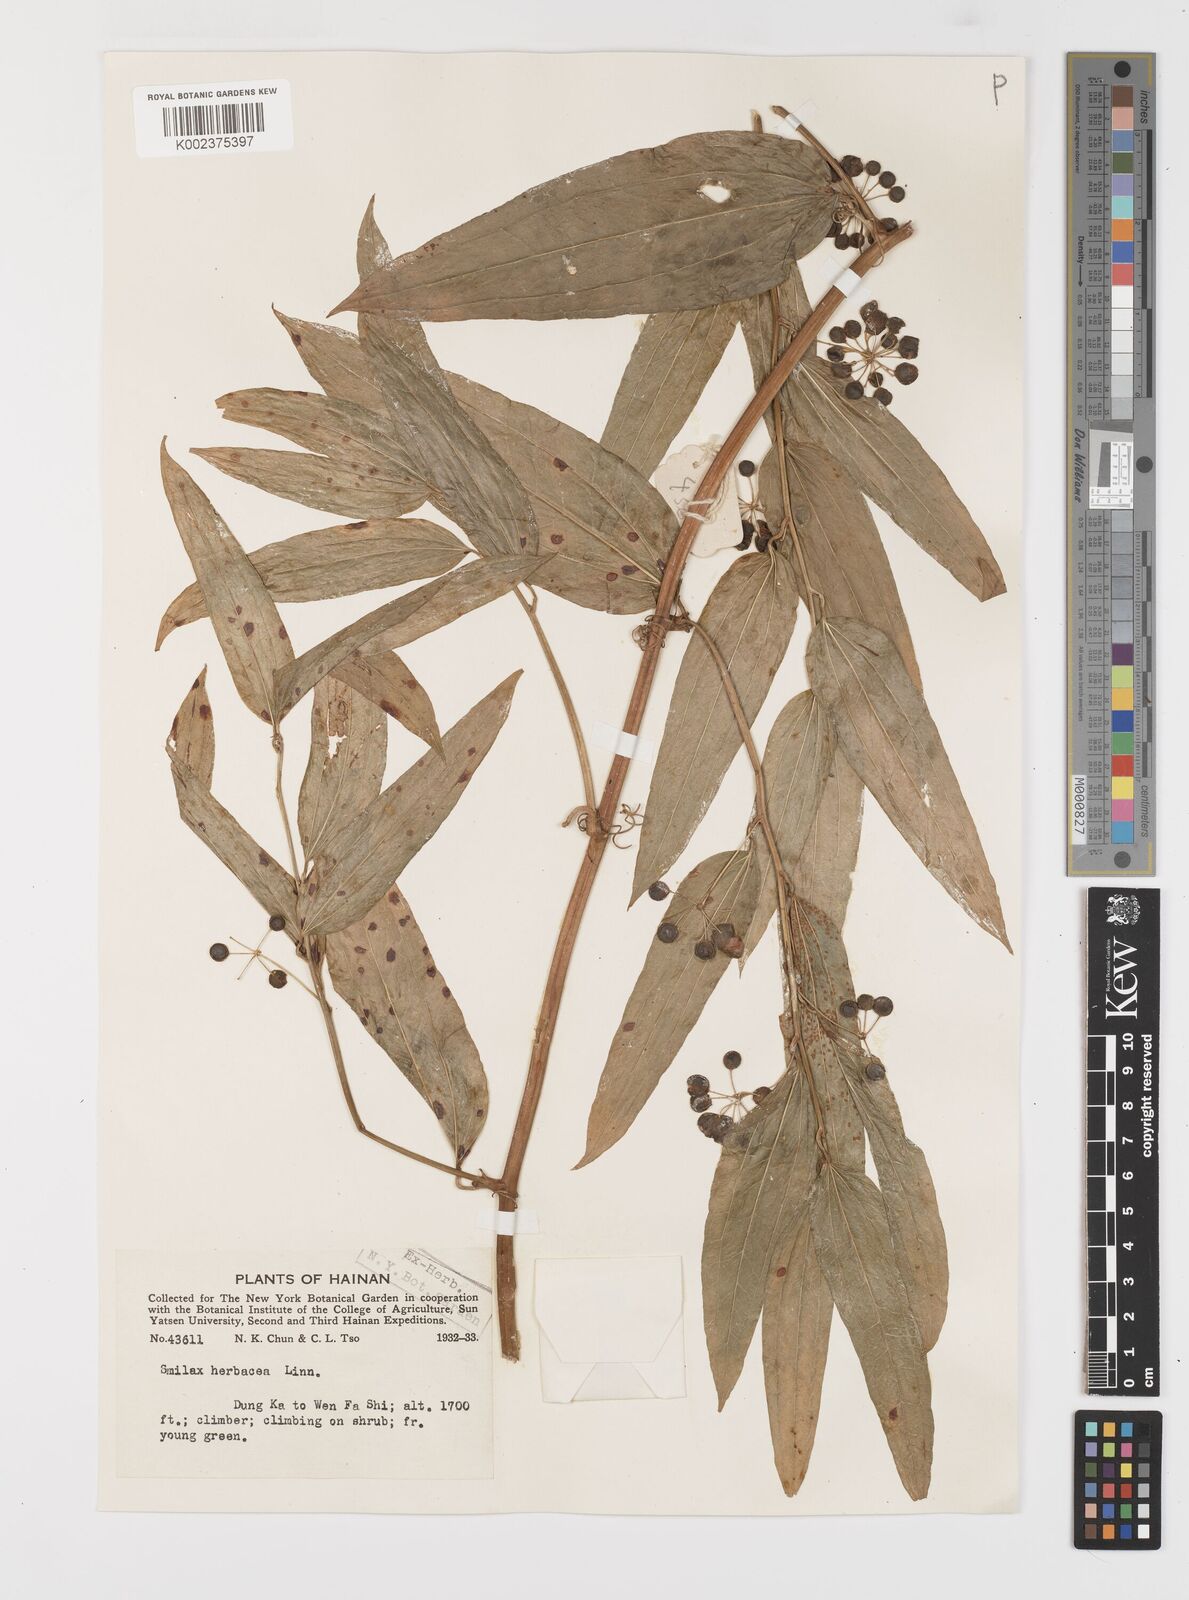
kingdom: Plantae
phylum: Tracheophyta
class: Liliopsida
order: Liliales
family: Smilacaceae
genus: Smilax
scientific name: Smilax riparia
